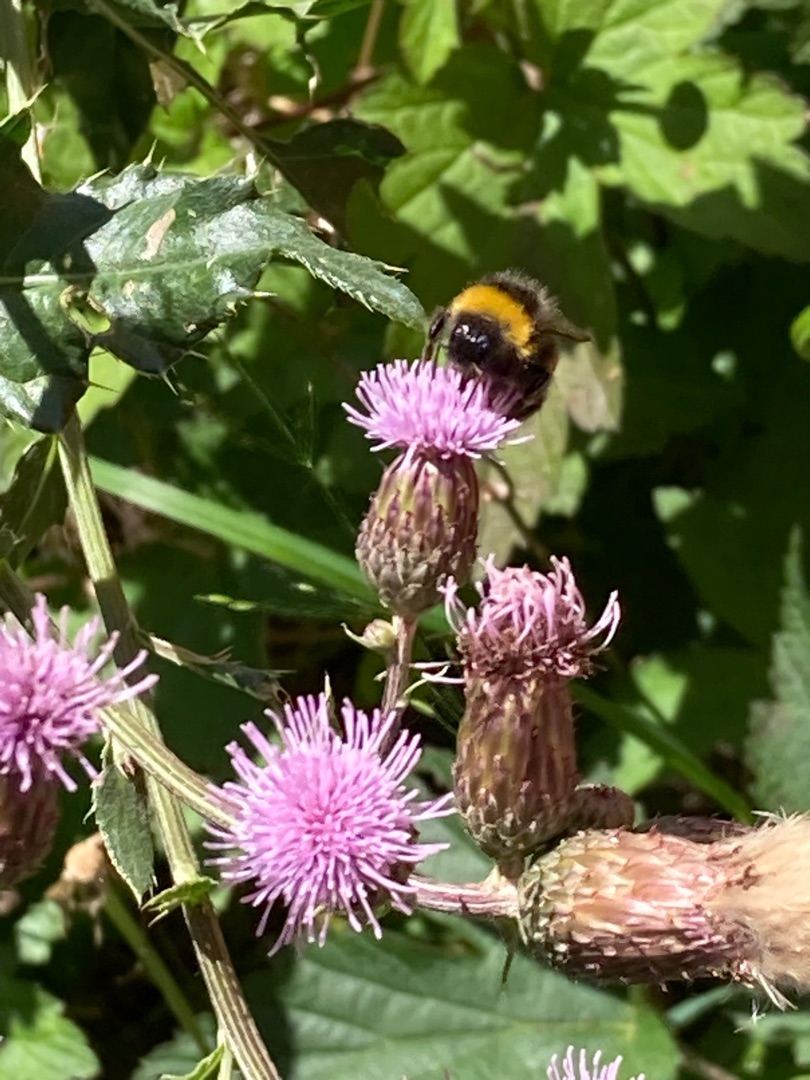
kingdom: Plantae
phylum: Tracheophyta
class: Magnoliopsida
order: Asterales
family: Asteraceae
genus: Cirsium
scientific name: Cirsium arvense
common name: Ager-tidsel
